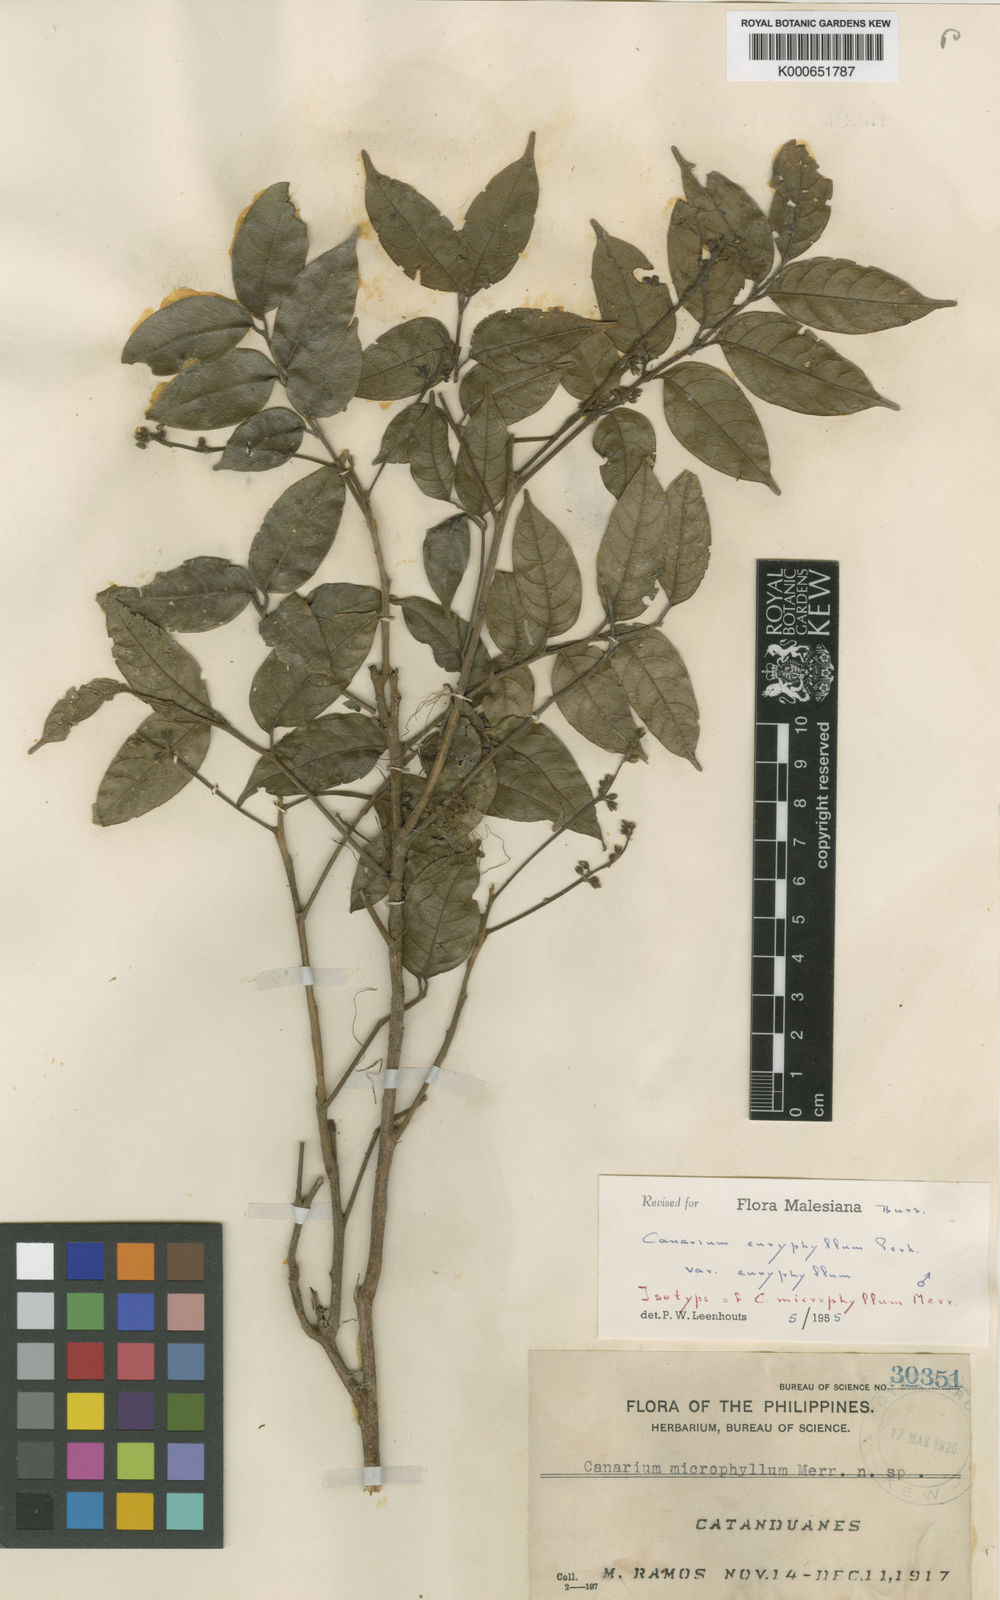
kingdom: Plantae
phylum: Tracheophyta
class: Magnoliopsida
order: Sapindales
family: Burseraceae
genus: Canarium
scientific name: Canarium euryphyllum
